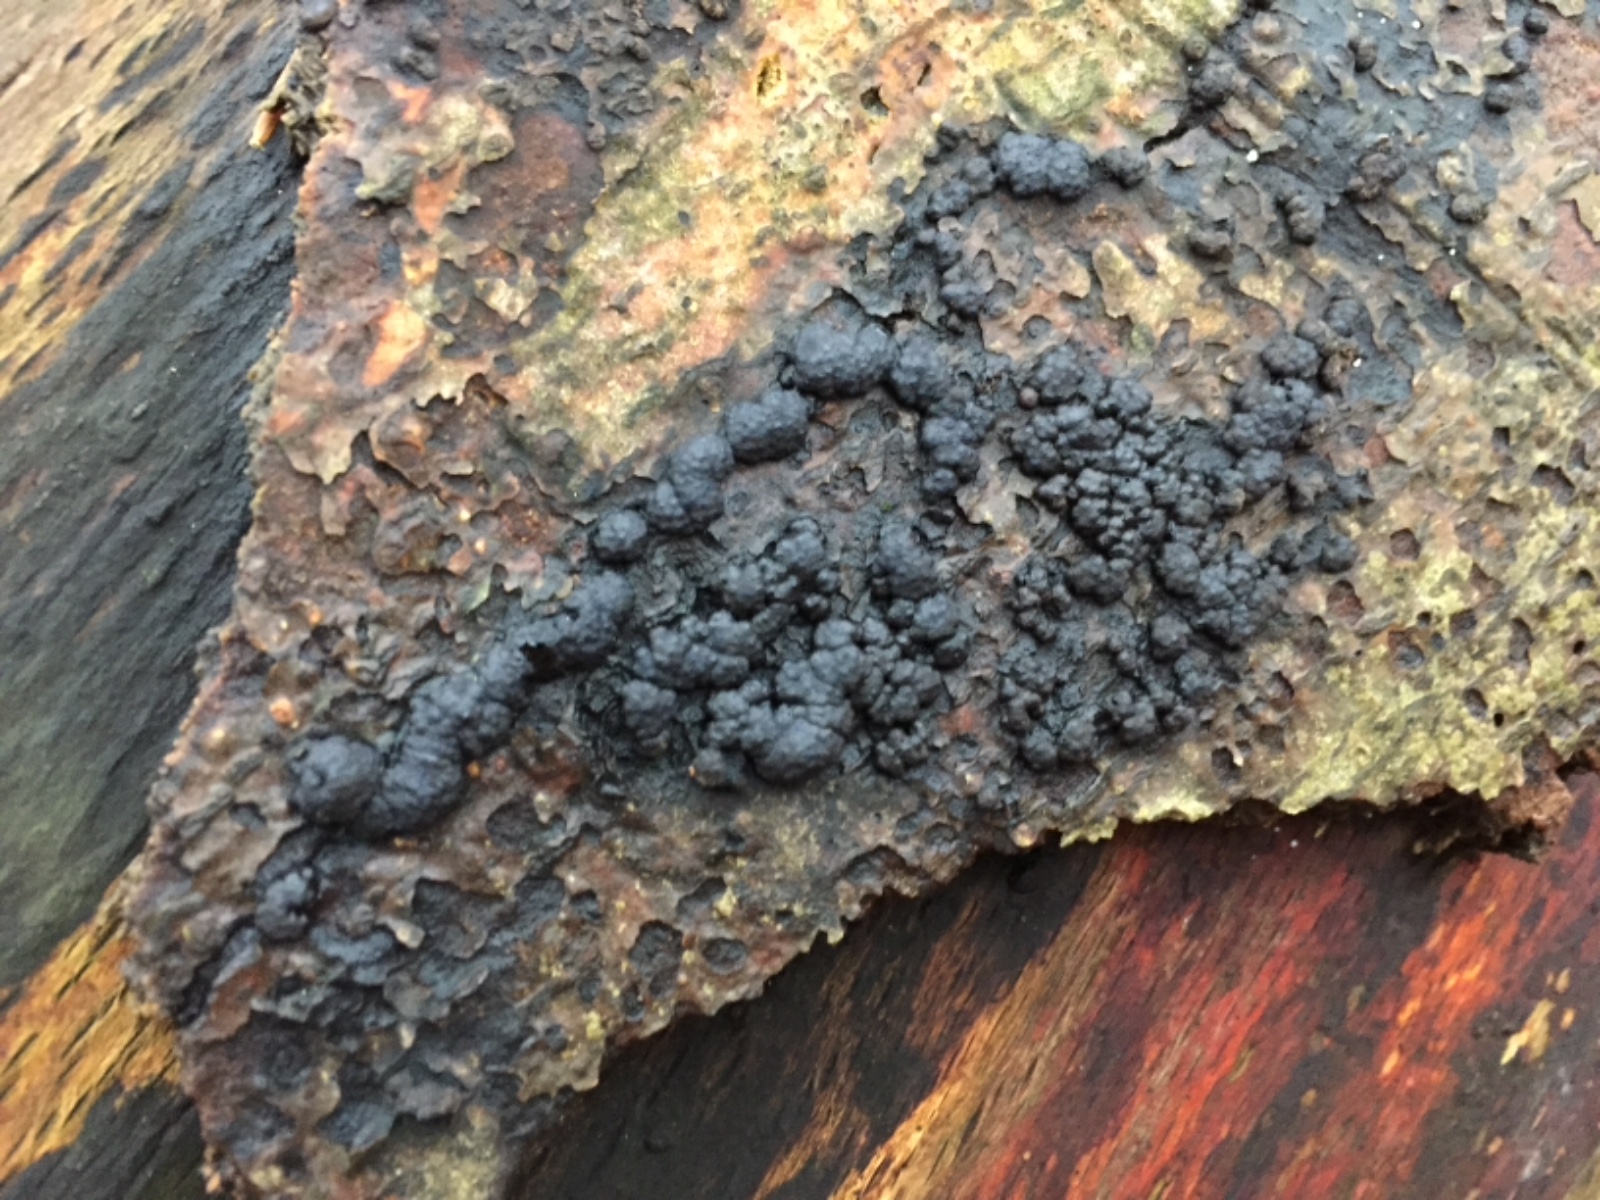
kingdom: Fungi
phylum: Ascomycota
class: Sordariomycetes
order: Xylariales
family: Hypoxylaceae
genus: Jackrogersella
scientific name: Jackrogersella cohaerens
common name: sammenflydende kulbær
